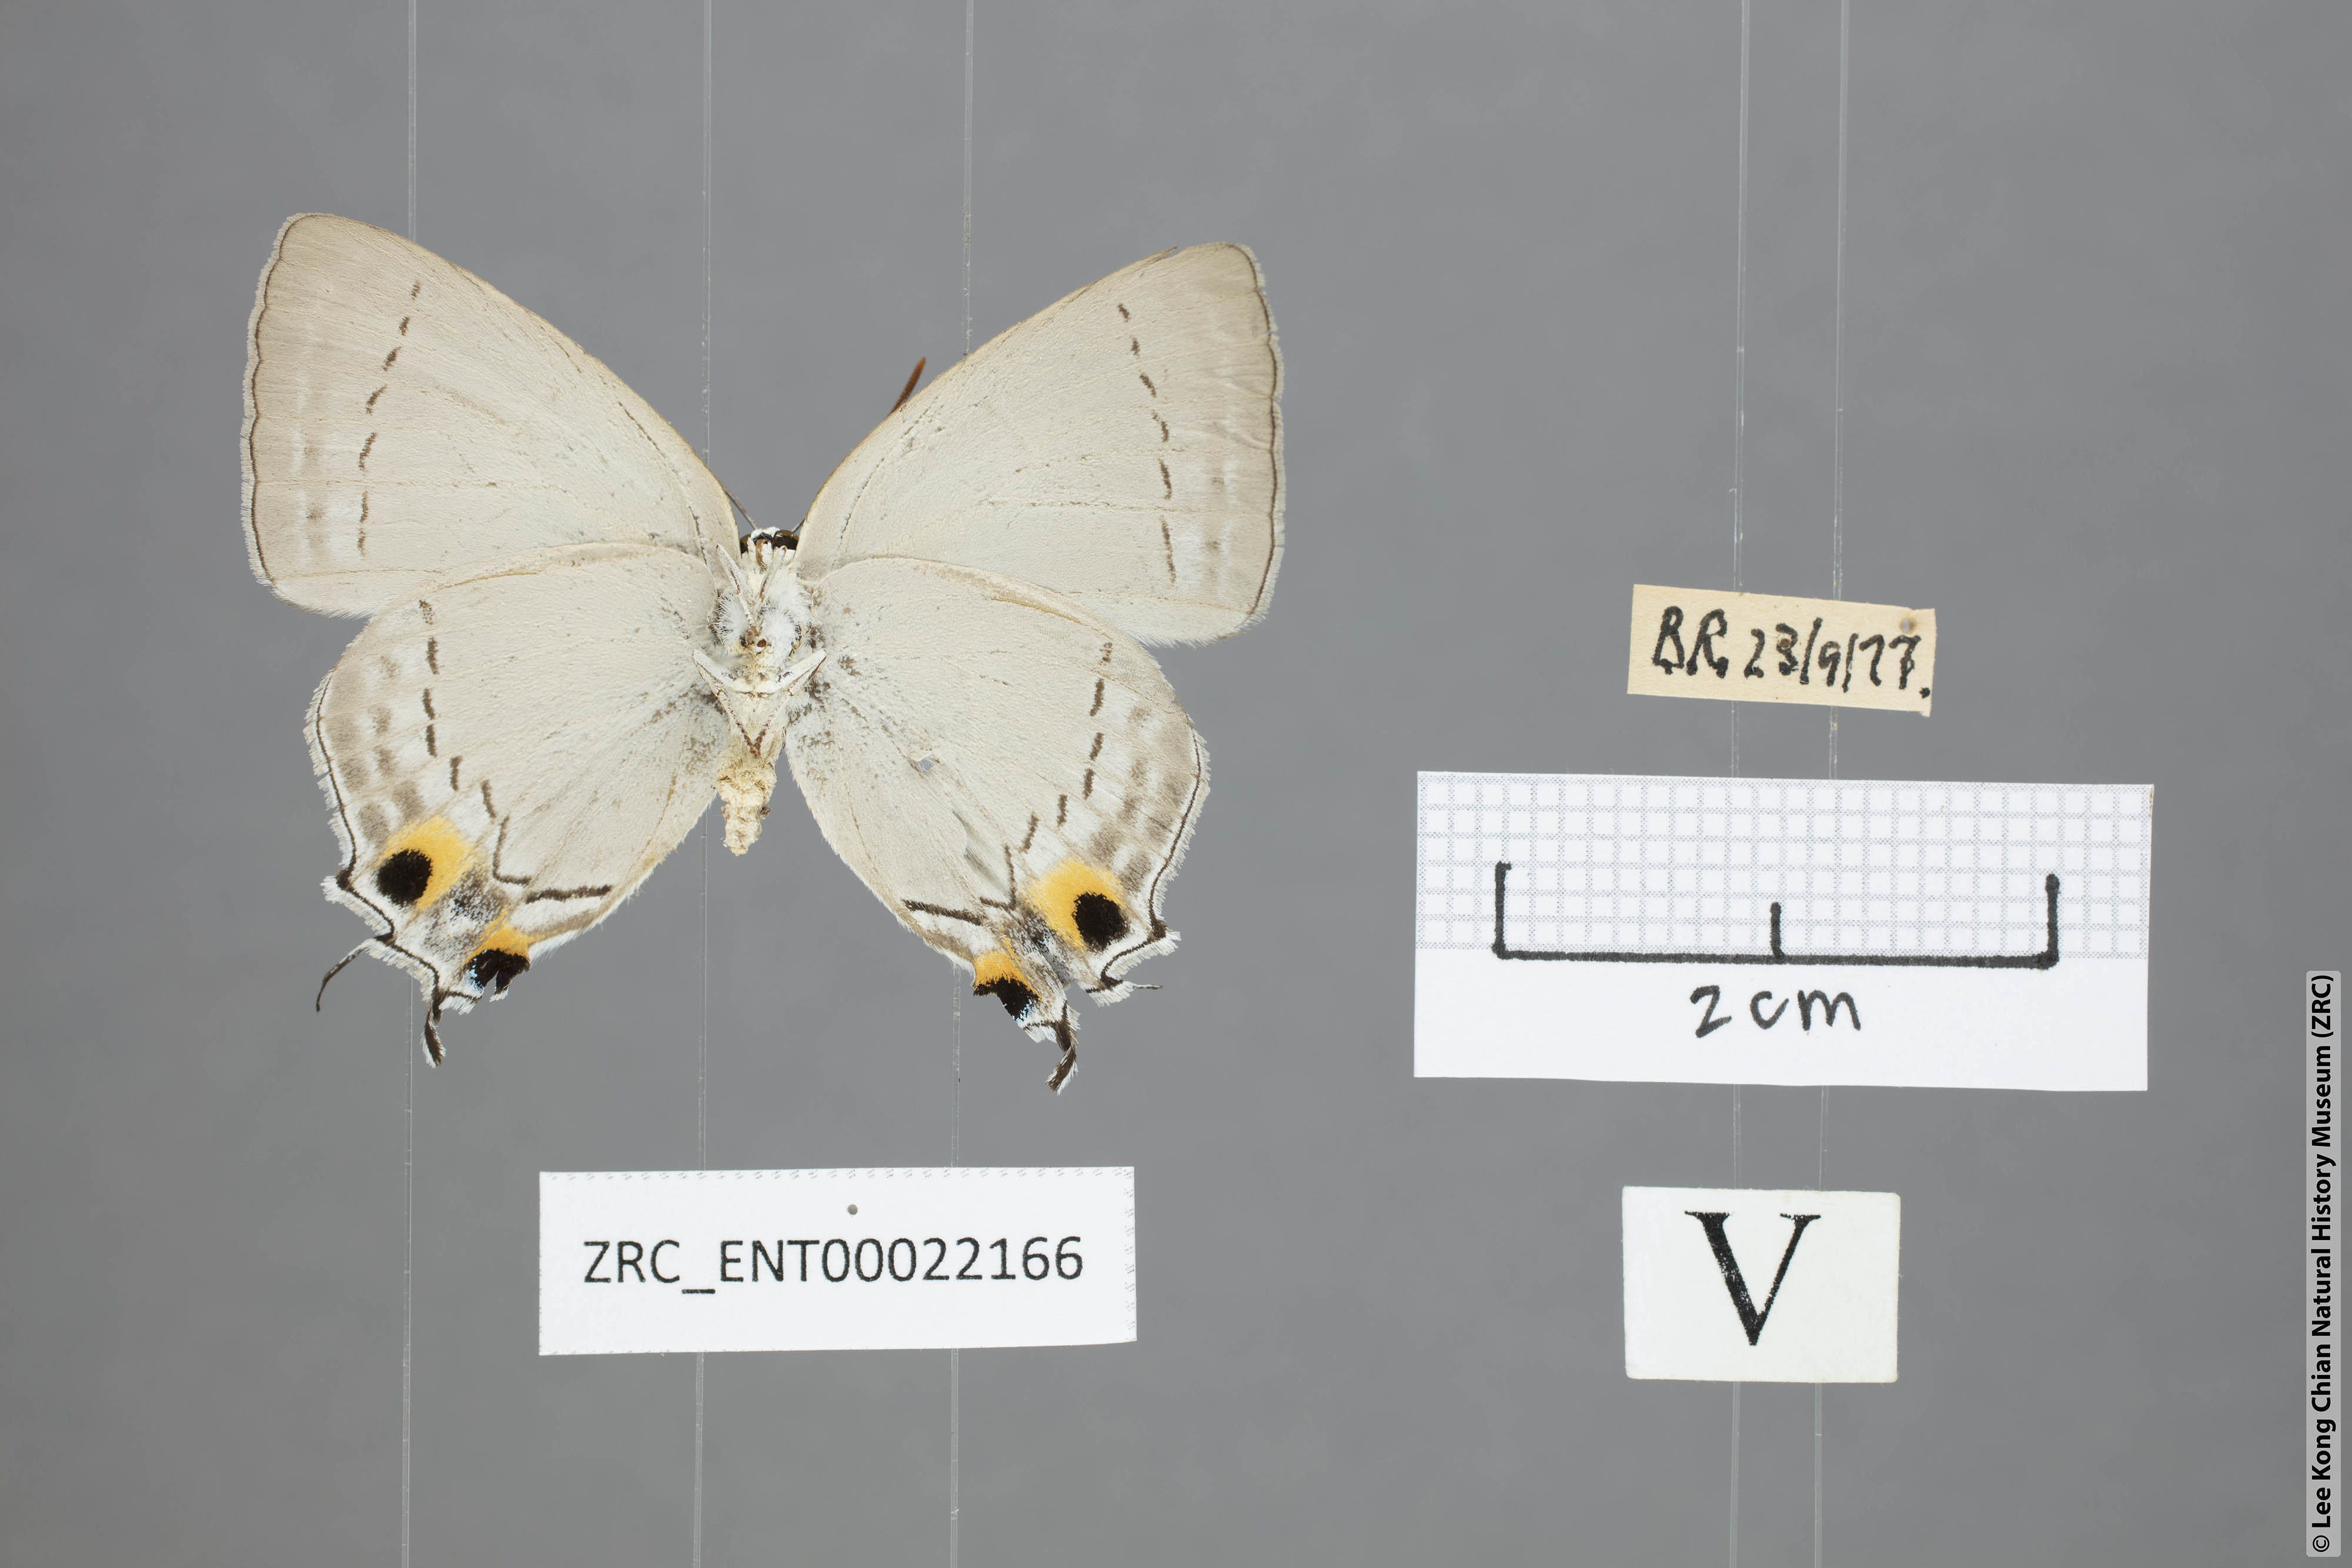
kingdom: Animalia
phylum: Arthropoda
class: Insecta
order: Lepidoptera
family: Lycaenidae
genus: Tajuria
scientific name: Tajuria cippus
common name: Peacock royal
